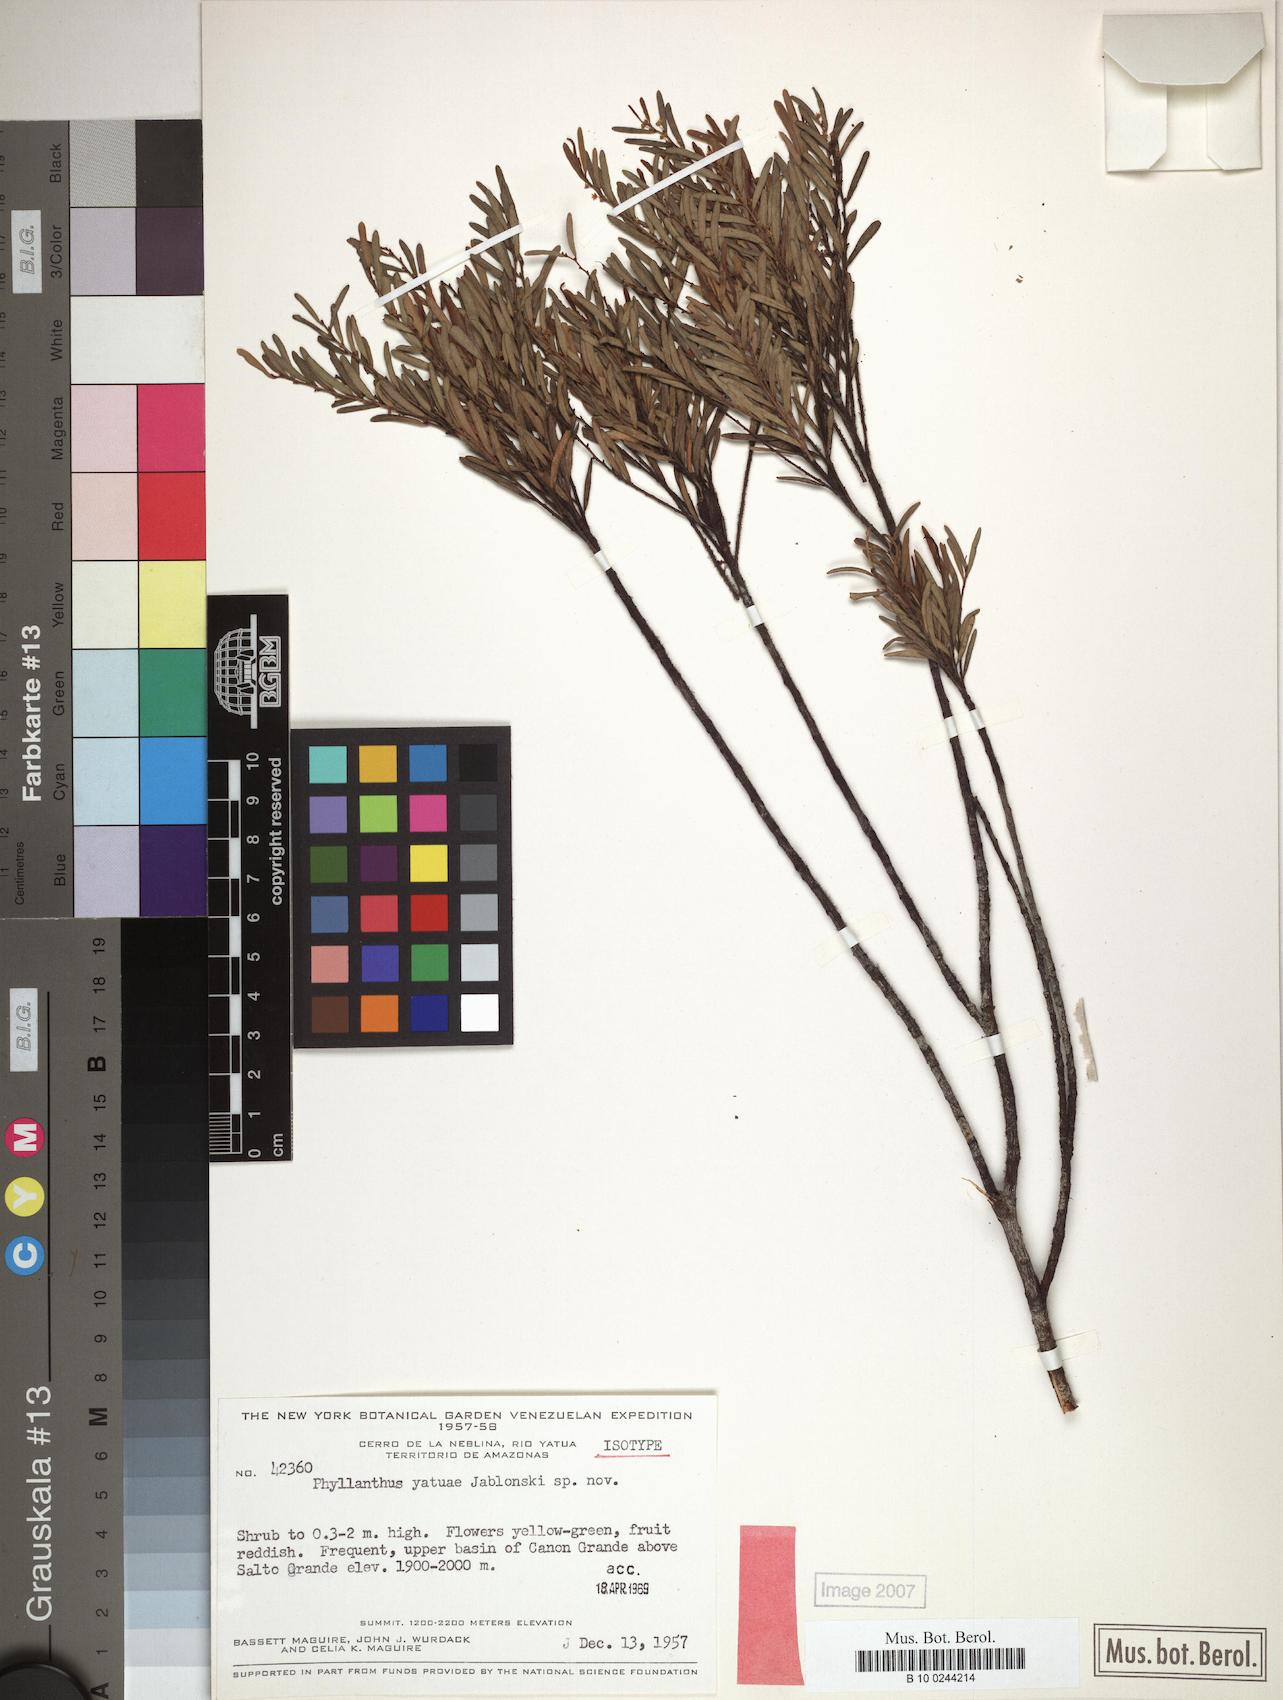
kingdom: Plantae
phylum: Tracheophyta
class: Magnoliopsida
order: Malpighiales
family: Phyllanthaceae
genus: Phyllanthus
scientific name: Phyllanthus
